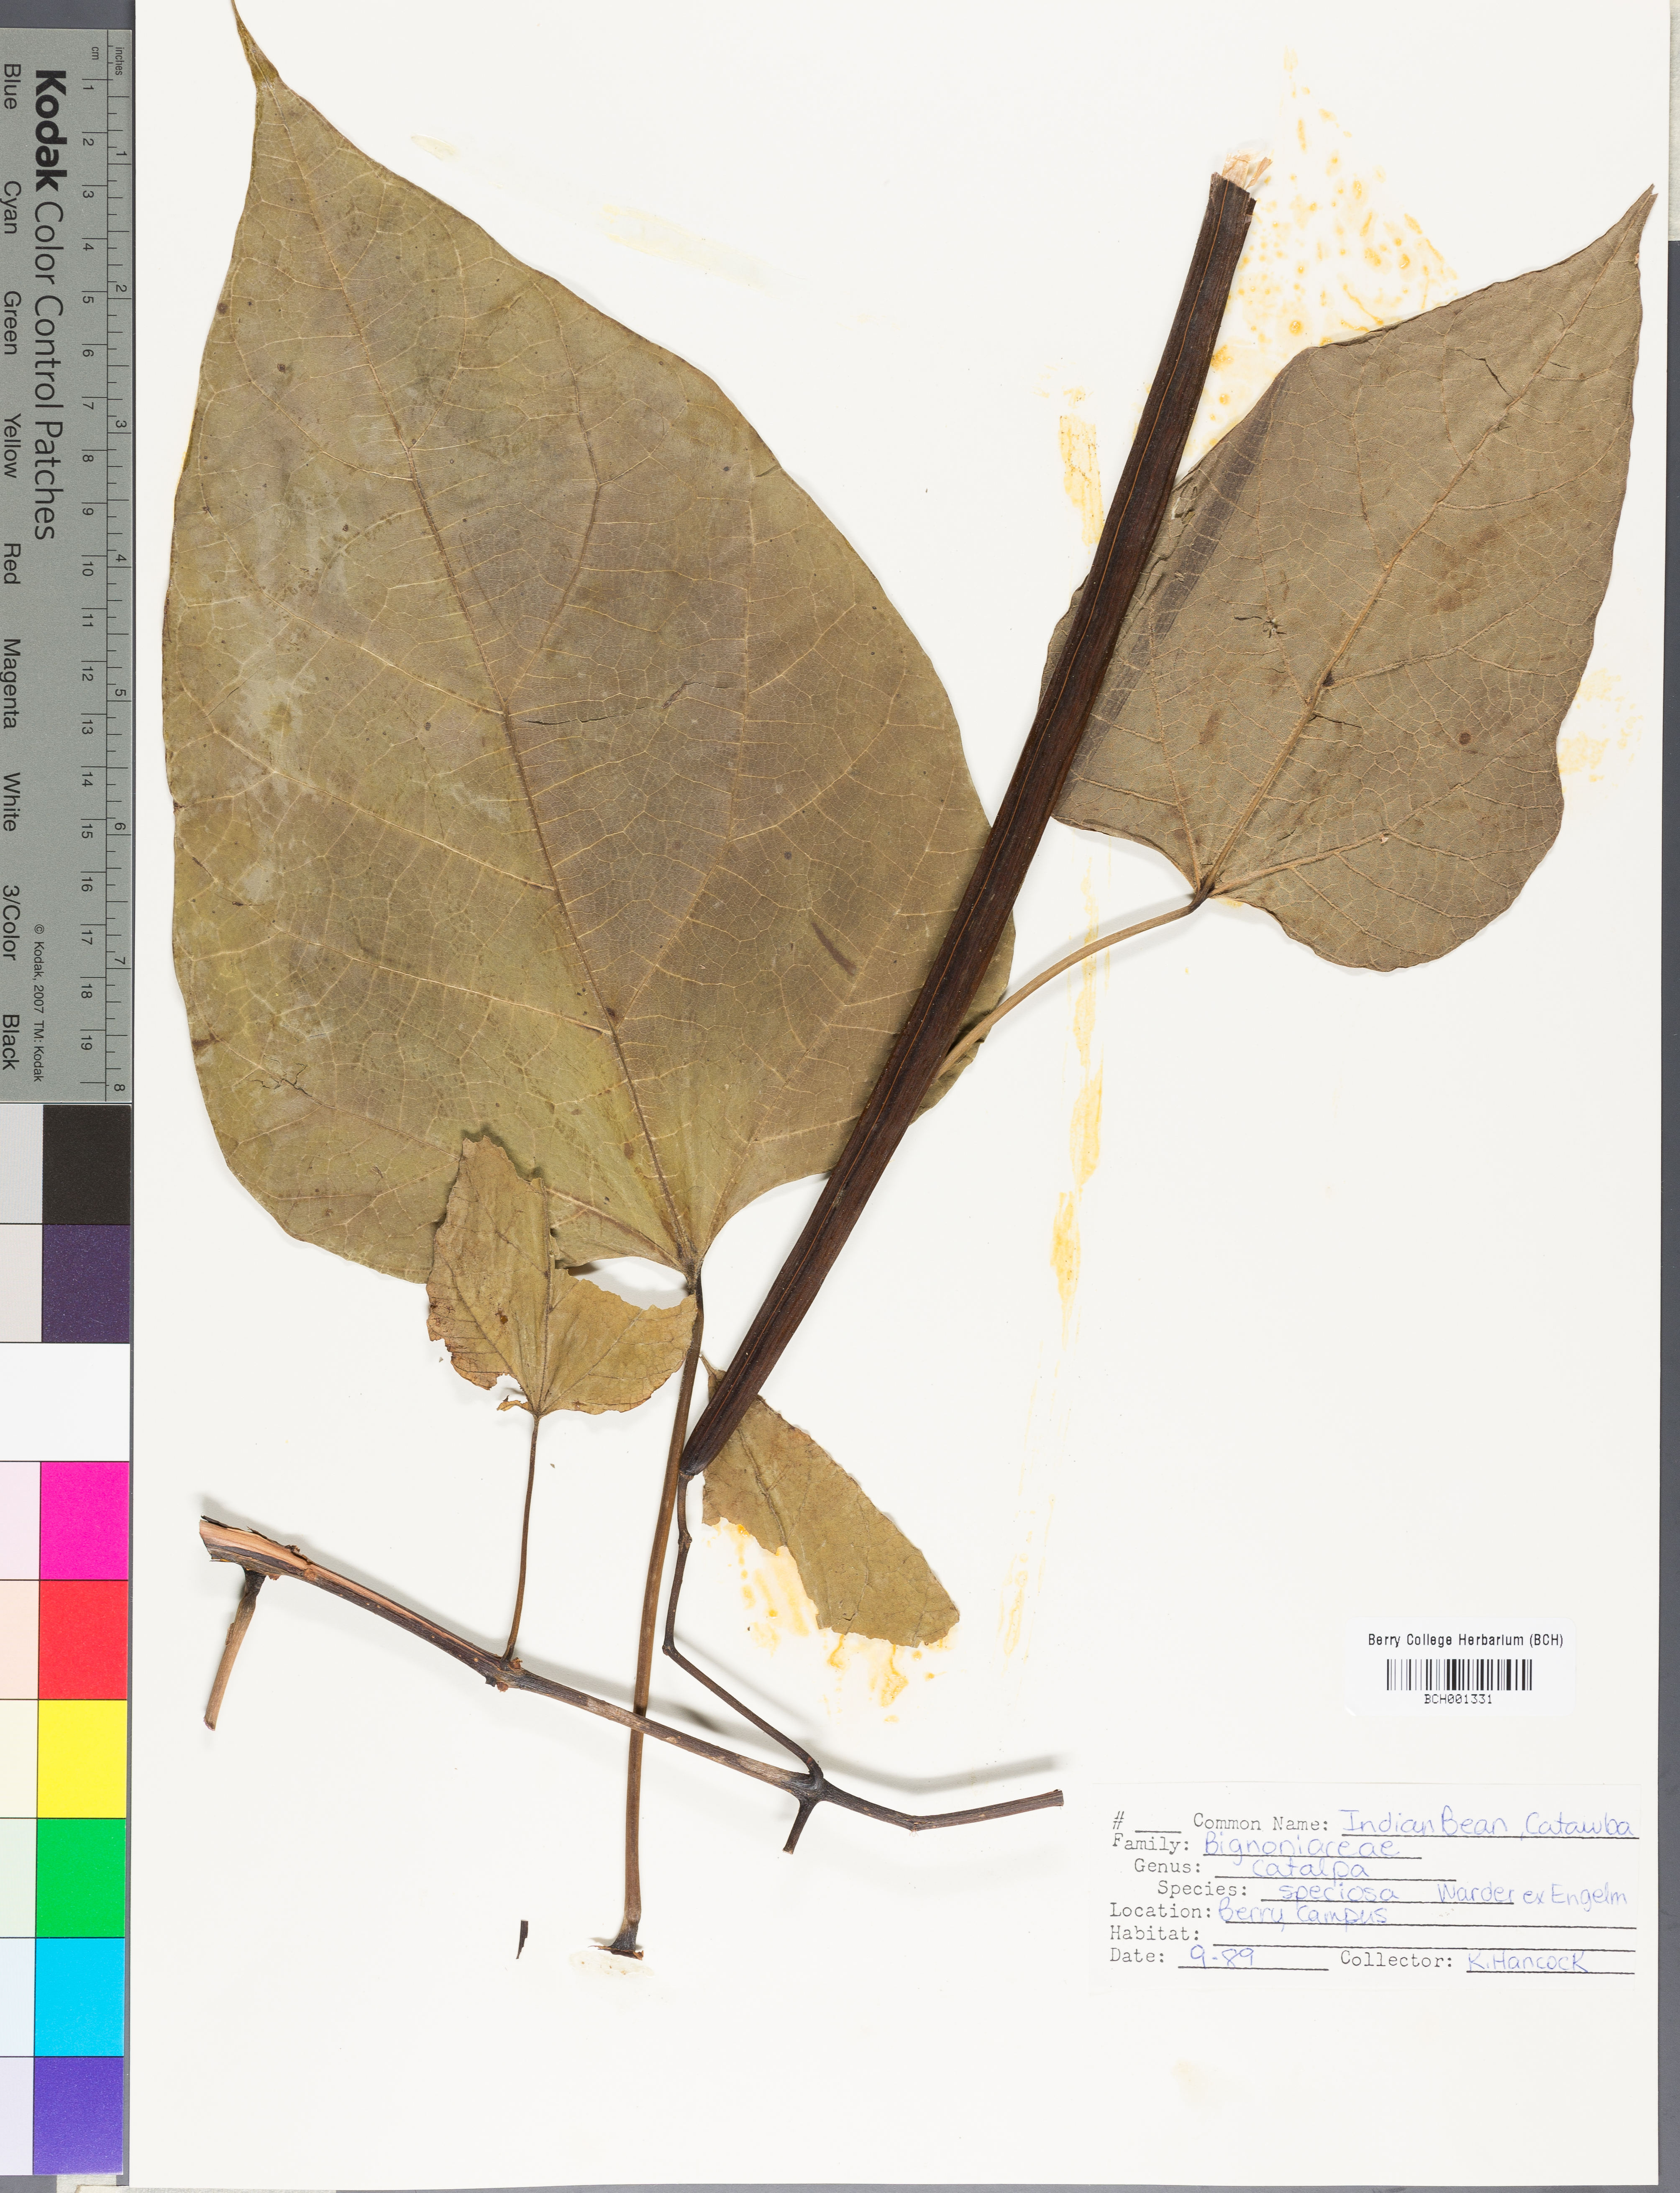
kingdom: Plantae
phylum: Tracheophyta
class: Magnoliopsida
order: Lamiales
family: Bignoniaceae
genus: Catalpa
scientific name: Catalpa speciosa
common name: Northern catalpa
